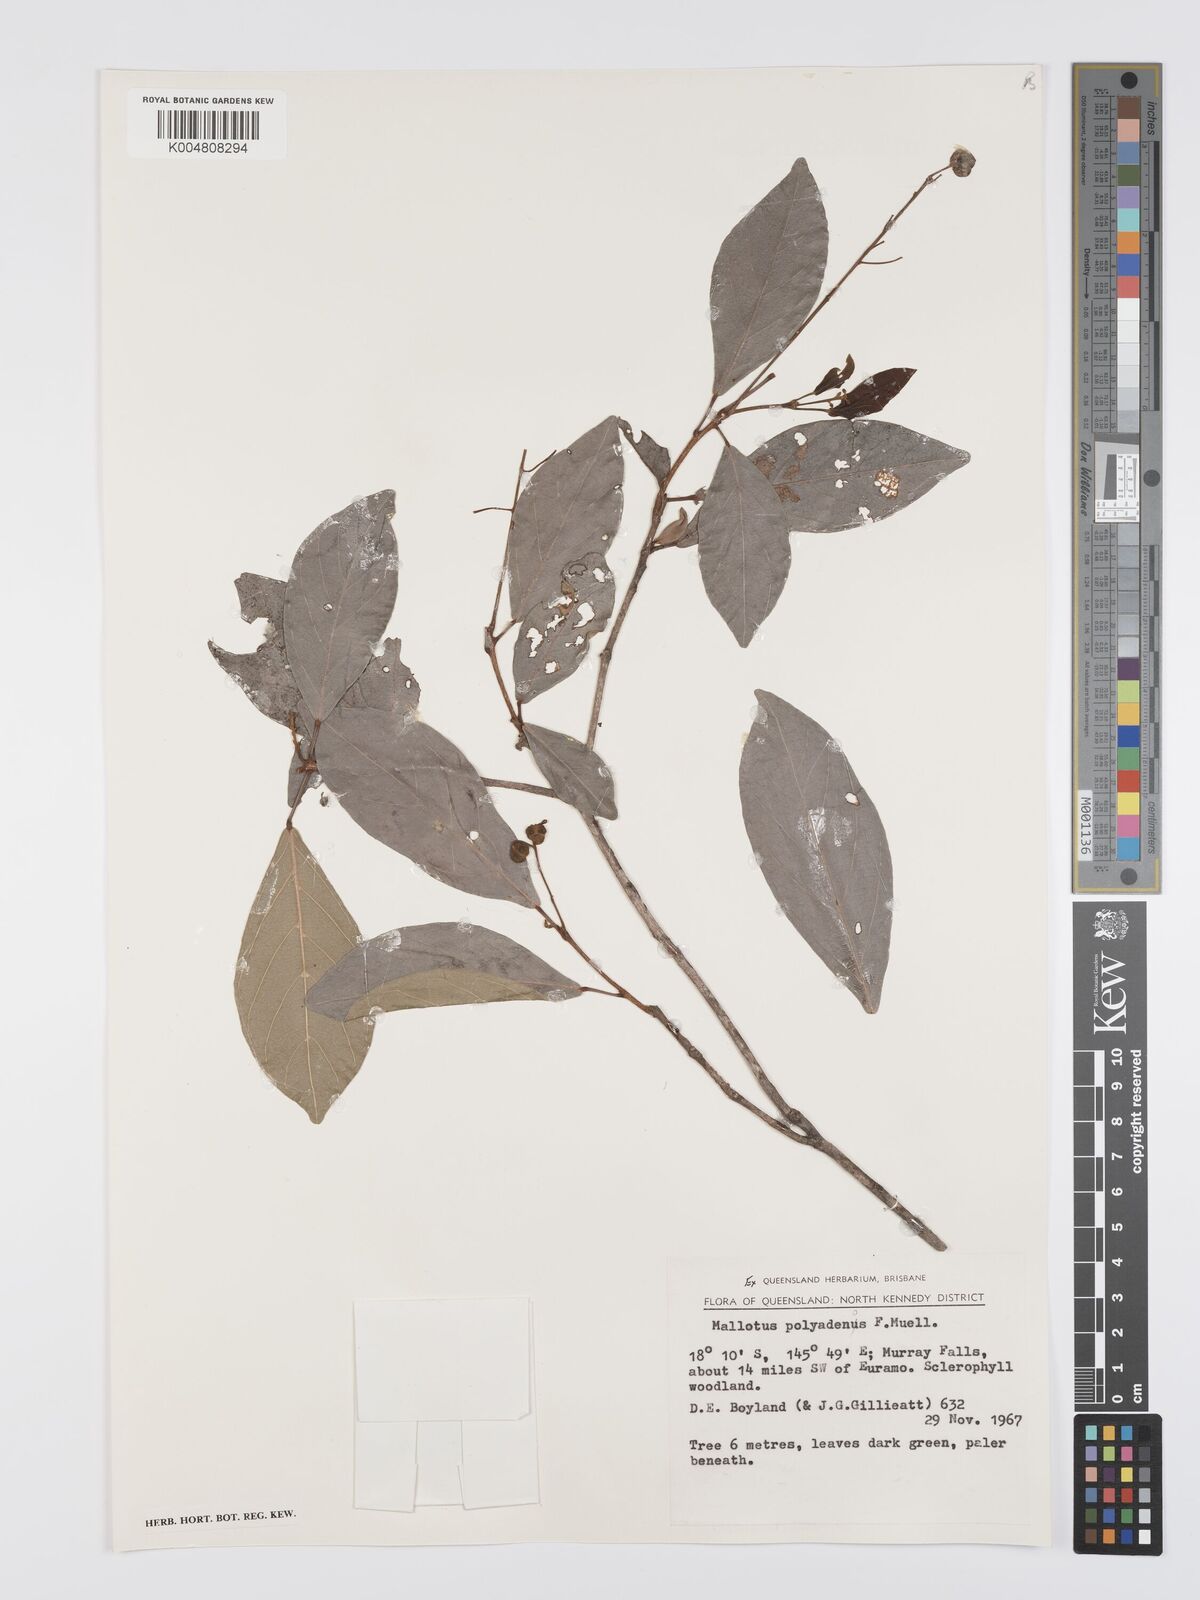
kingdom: Plantae
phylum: Tracheophyta
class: Magnoliopsida
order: Malpighiales
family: Euphorbiaceae
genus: Mallotus
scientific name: Mallotus polyadenos
